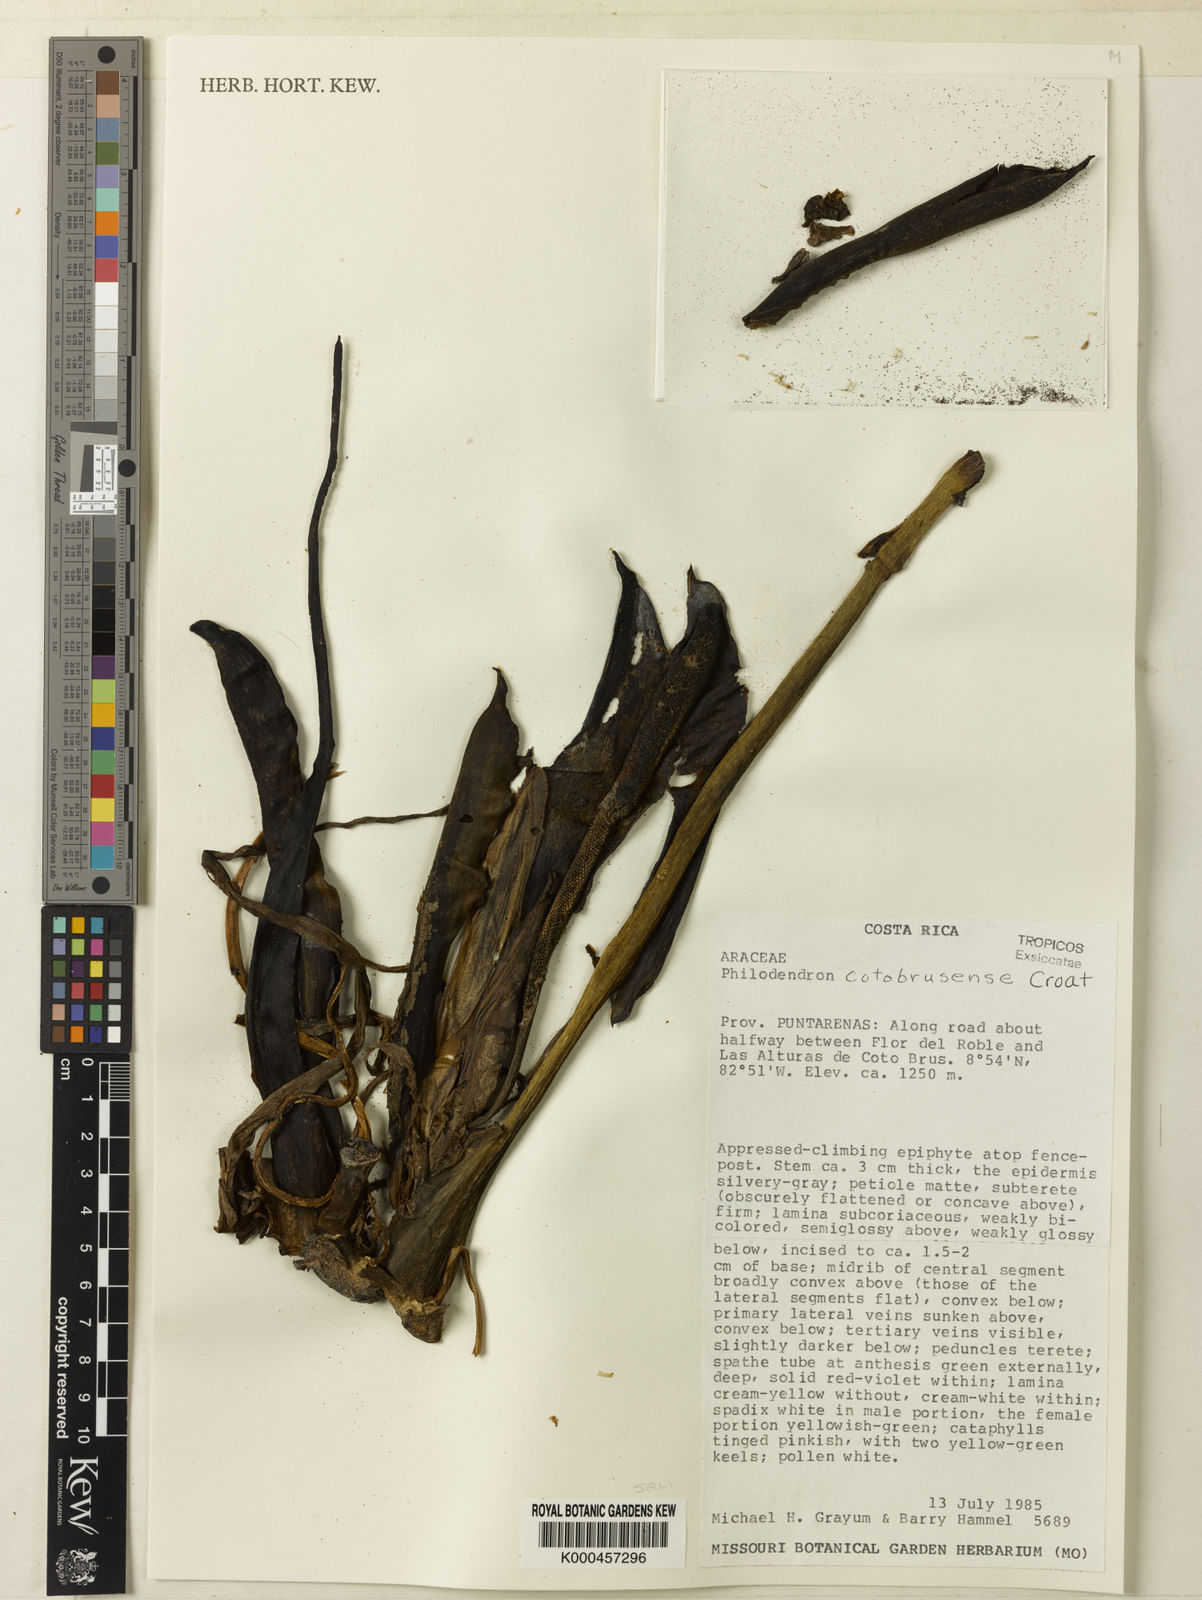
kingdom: Plantae
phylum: Tracheophyta
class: Liliopsida
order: Alismatales
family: Araceae
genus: Philodendron
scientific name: Philodendron cotobrusense
